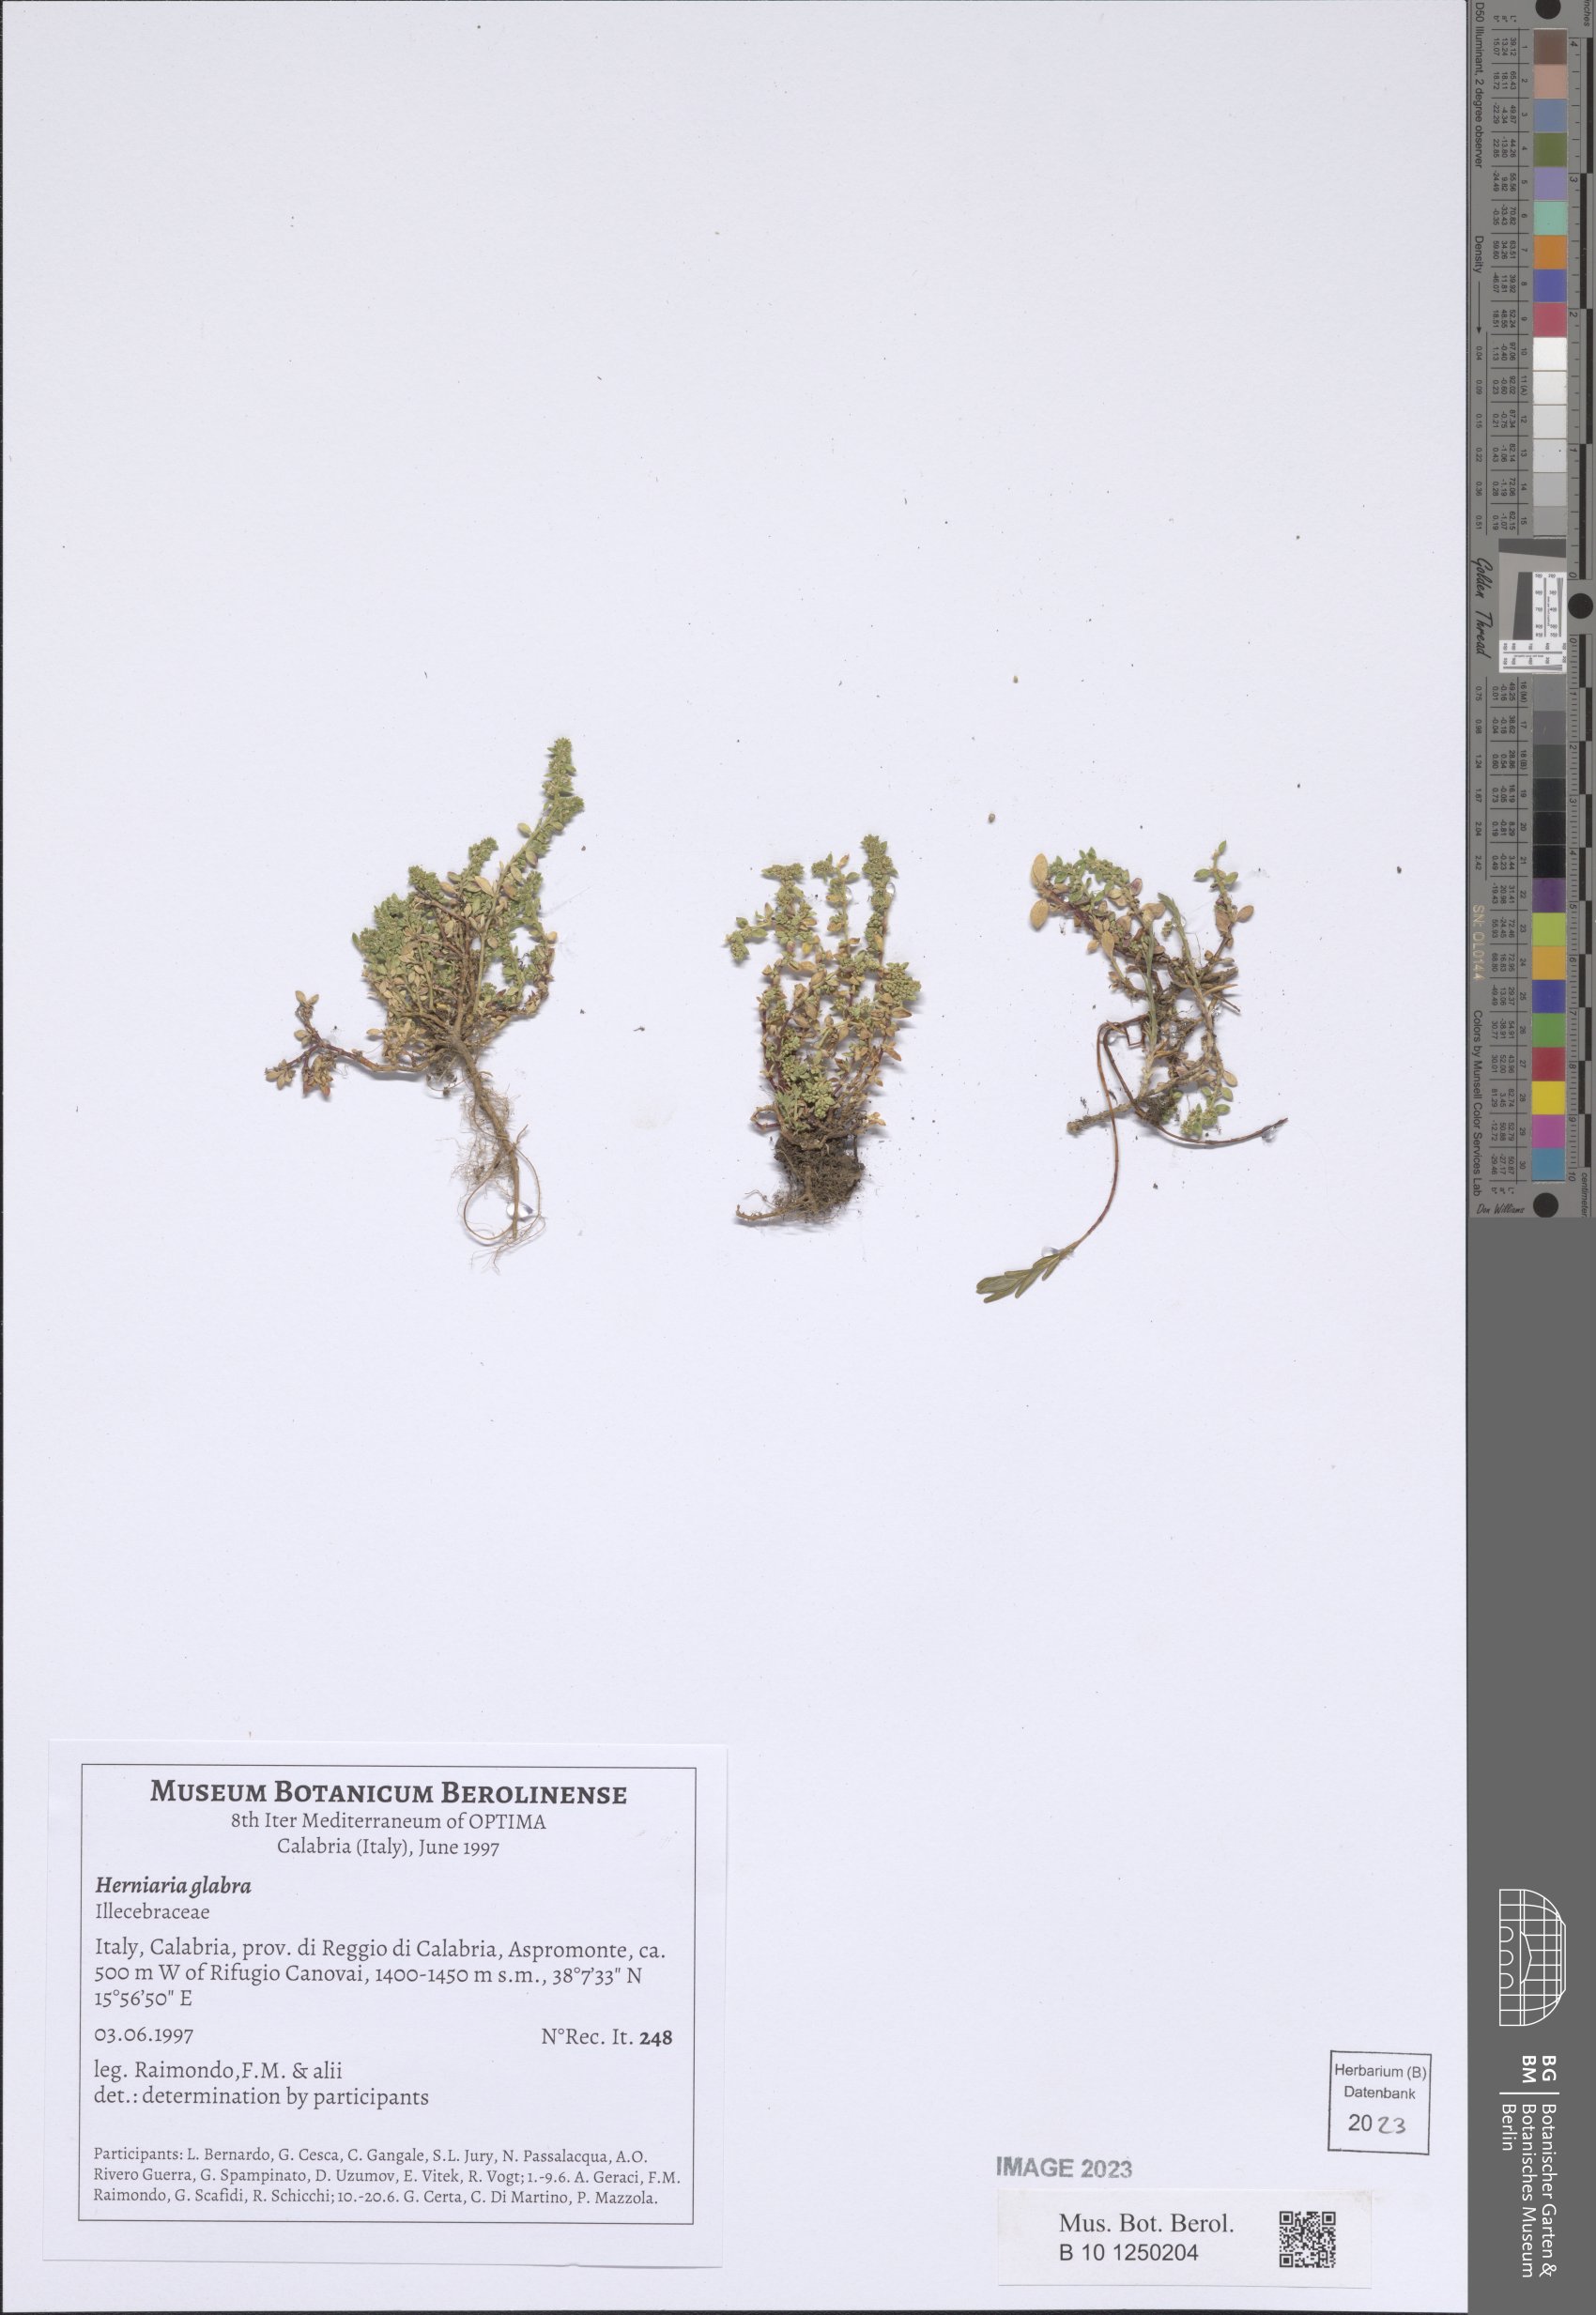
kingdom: Plantae
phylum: Tracheophyta
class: Magnoliopsida
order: Caryophyllales
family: Caryophyllaceae
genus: Herniaria
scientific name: Herniaria glabra
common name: Smooth rupturewort
